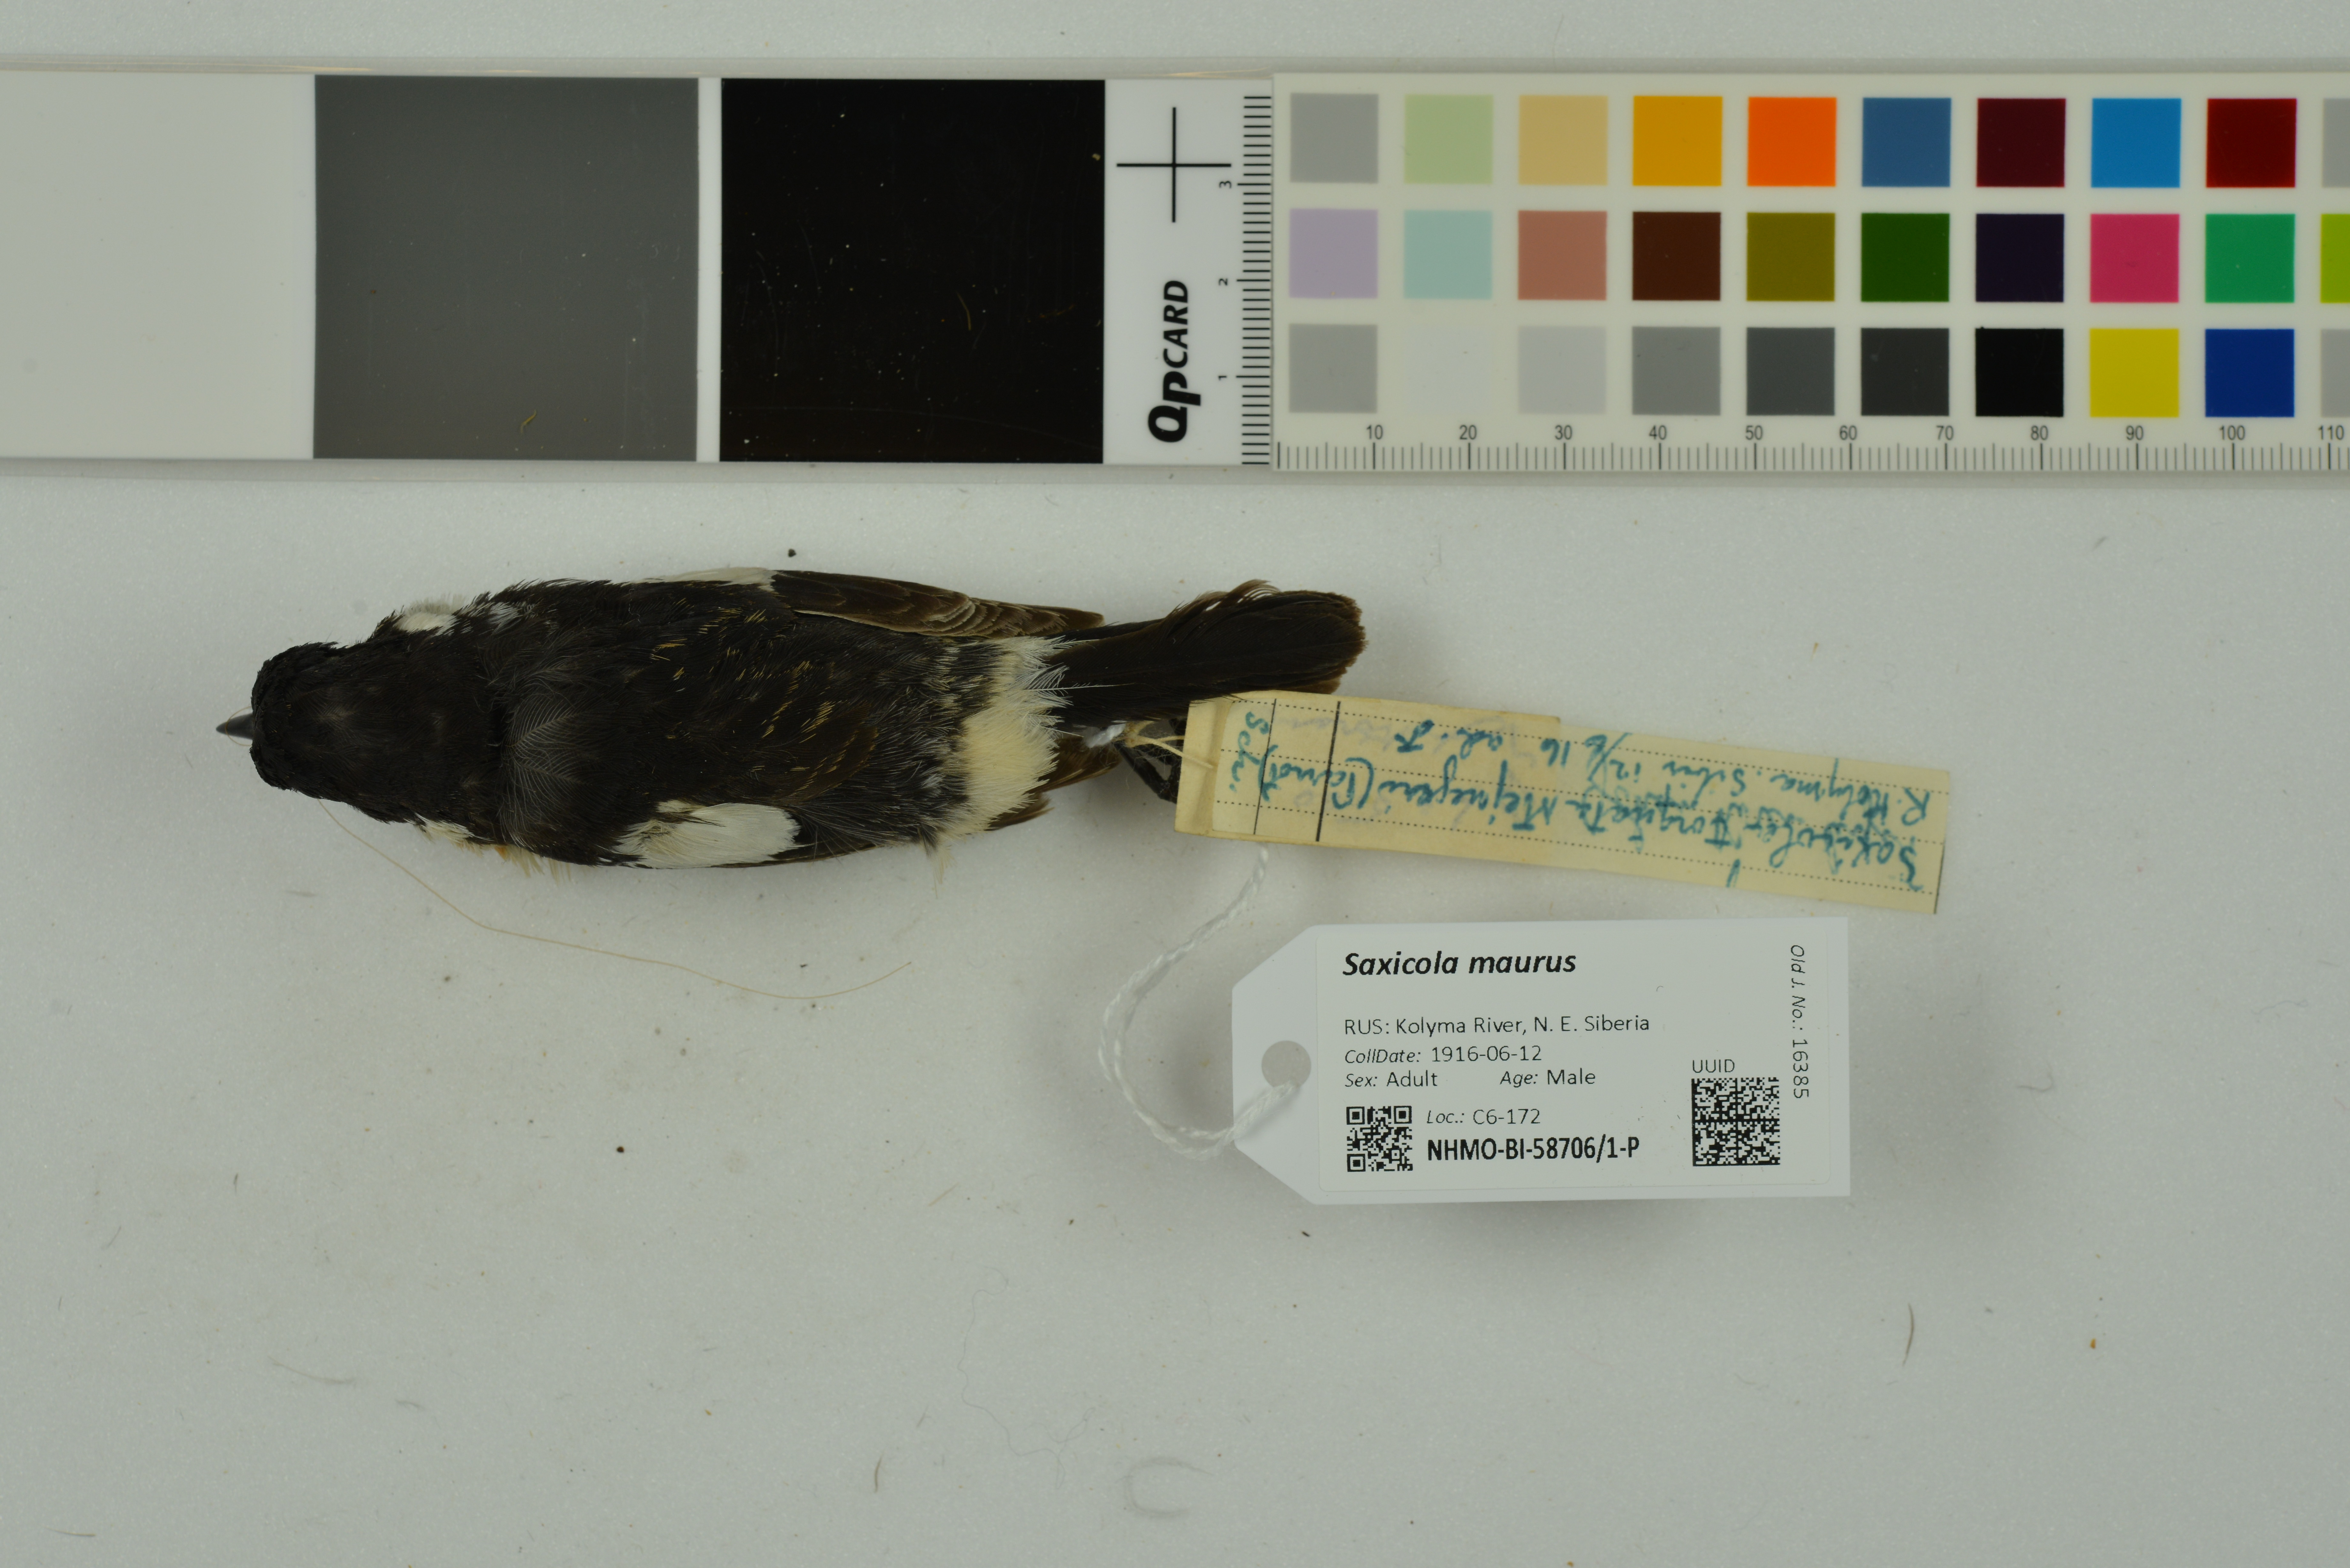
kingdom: Animalia
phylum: Chordata
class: Aves
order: Passeriformes
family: Muscicapidae
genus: Saxicola
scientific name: Saxicola maurus
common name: Siberian stonechat
